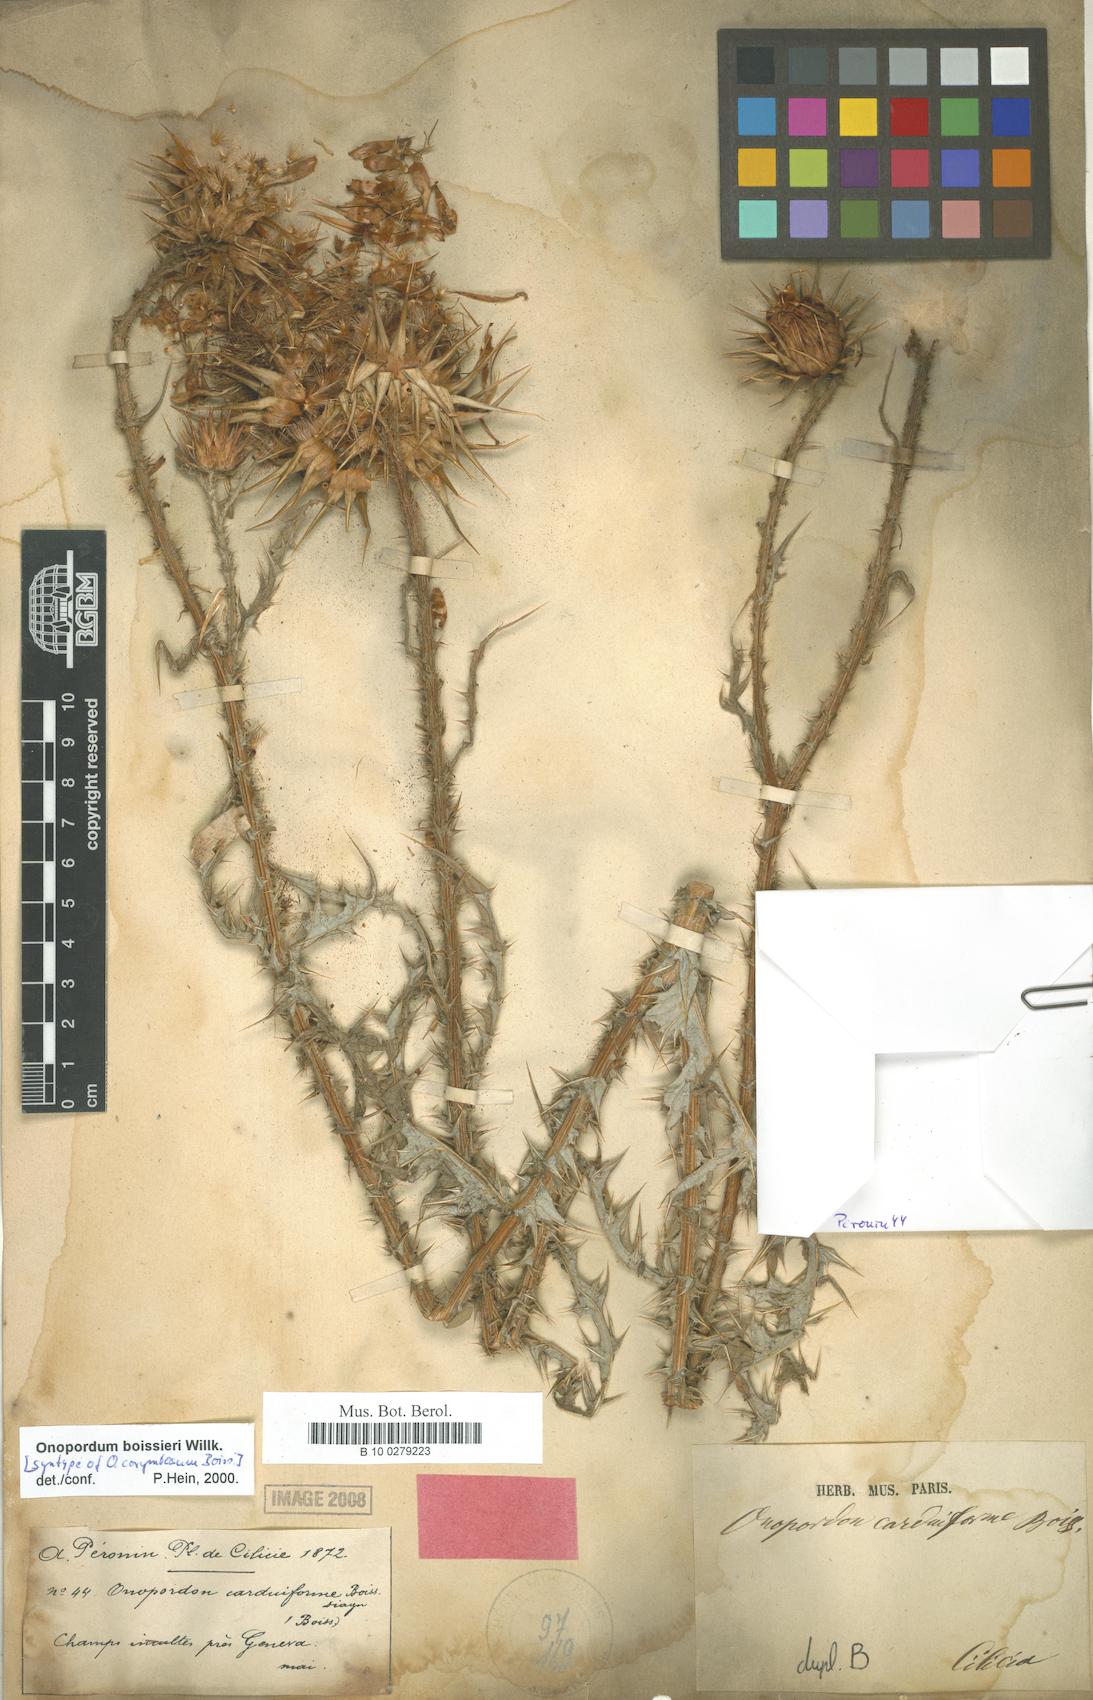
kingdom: Plantae
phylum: Tracheophyta
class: Magnoliopsida
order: Asterales
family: Asteraceae
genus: Onopordum
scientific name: Onopordum bracteatum
